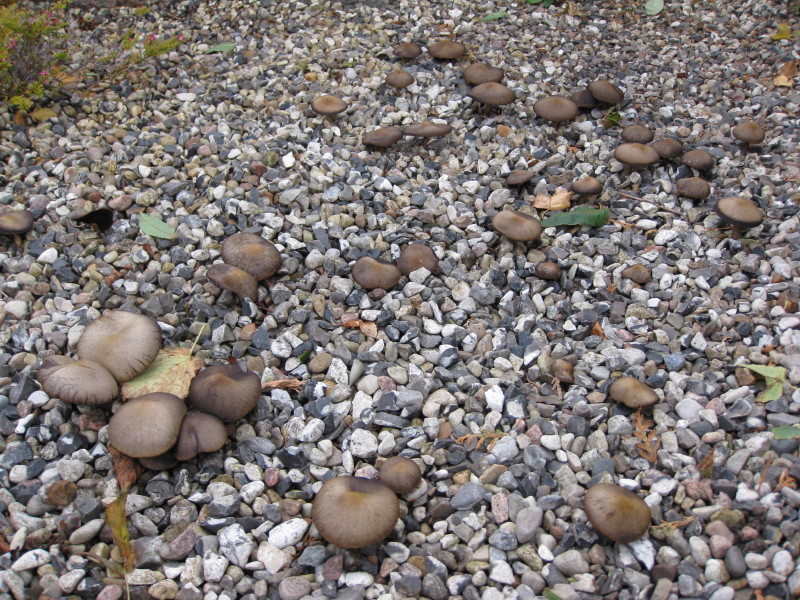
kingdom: Fungi
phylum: Basidiomycota
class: Agaricomycetes
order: Agaricales
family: Psathyrellaceae
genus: Lacrymaria
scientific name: Lacrymaria lacrymabunda
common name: grædende mørkhat
